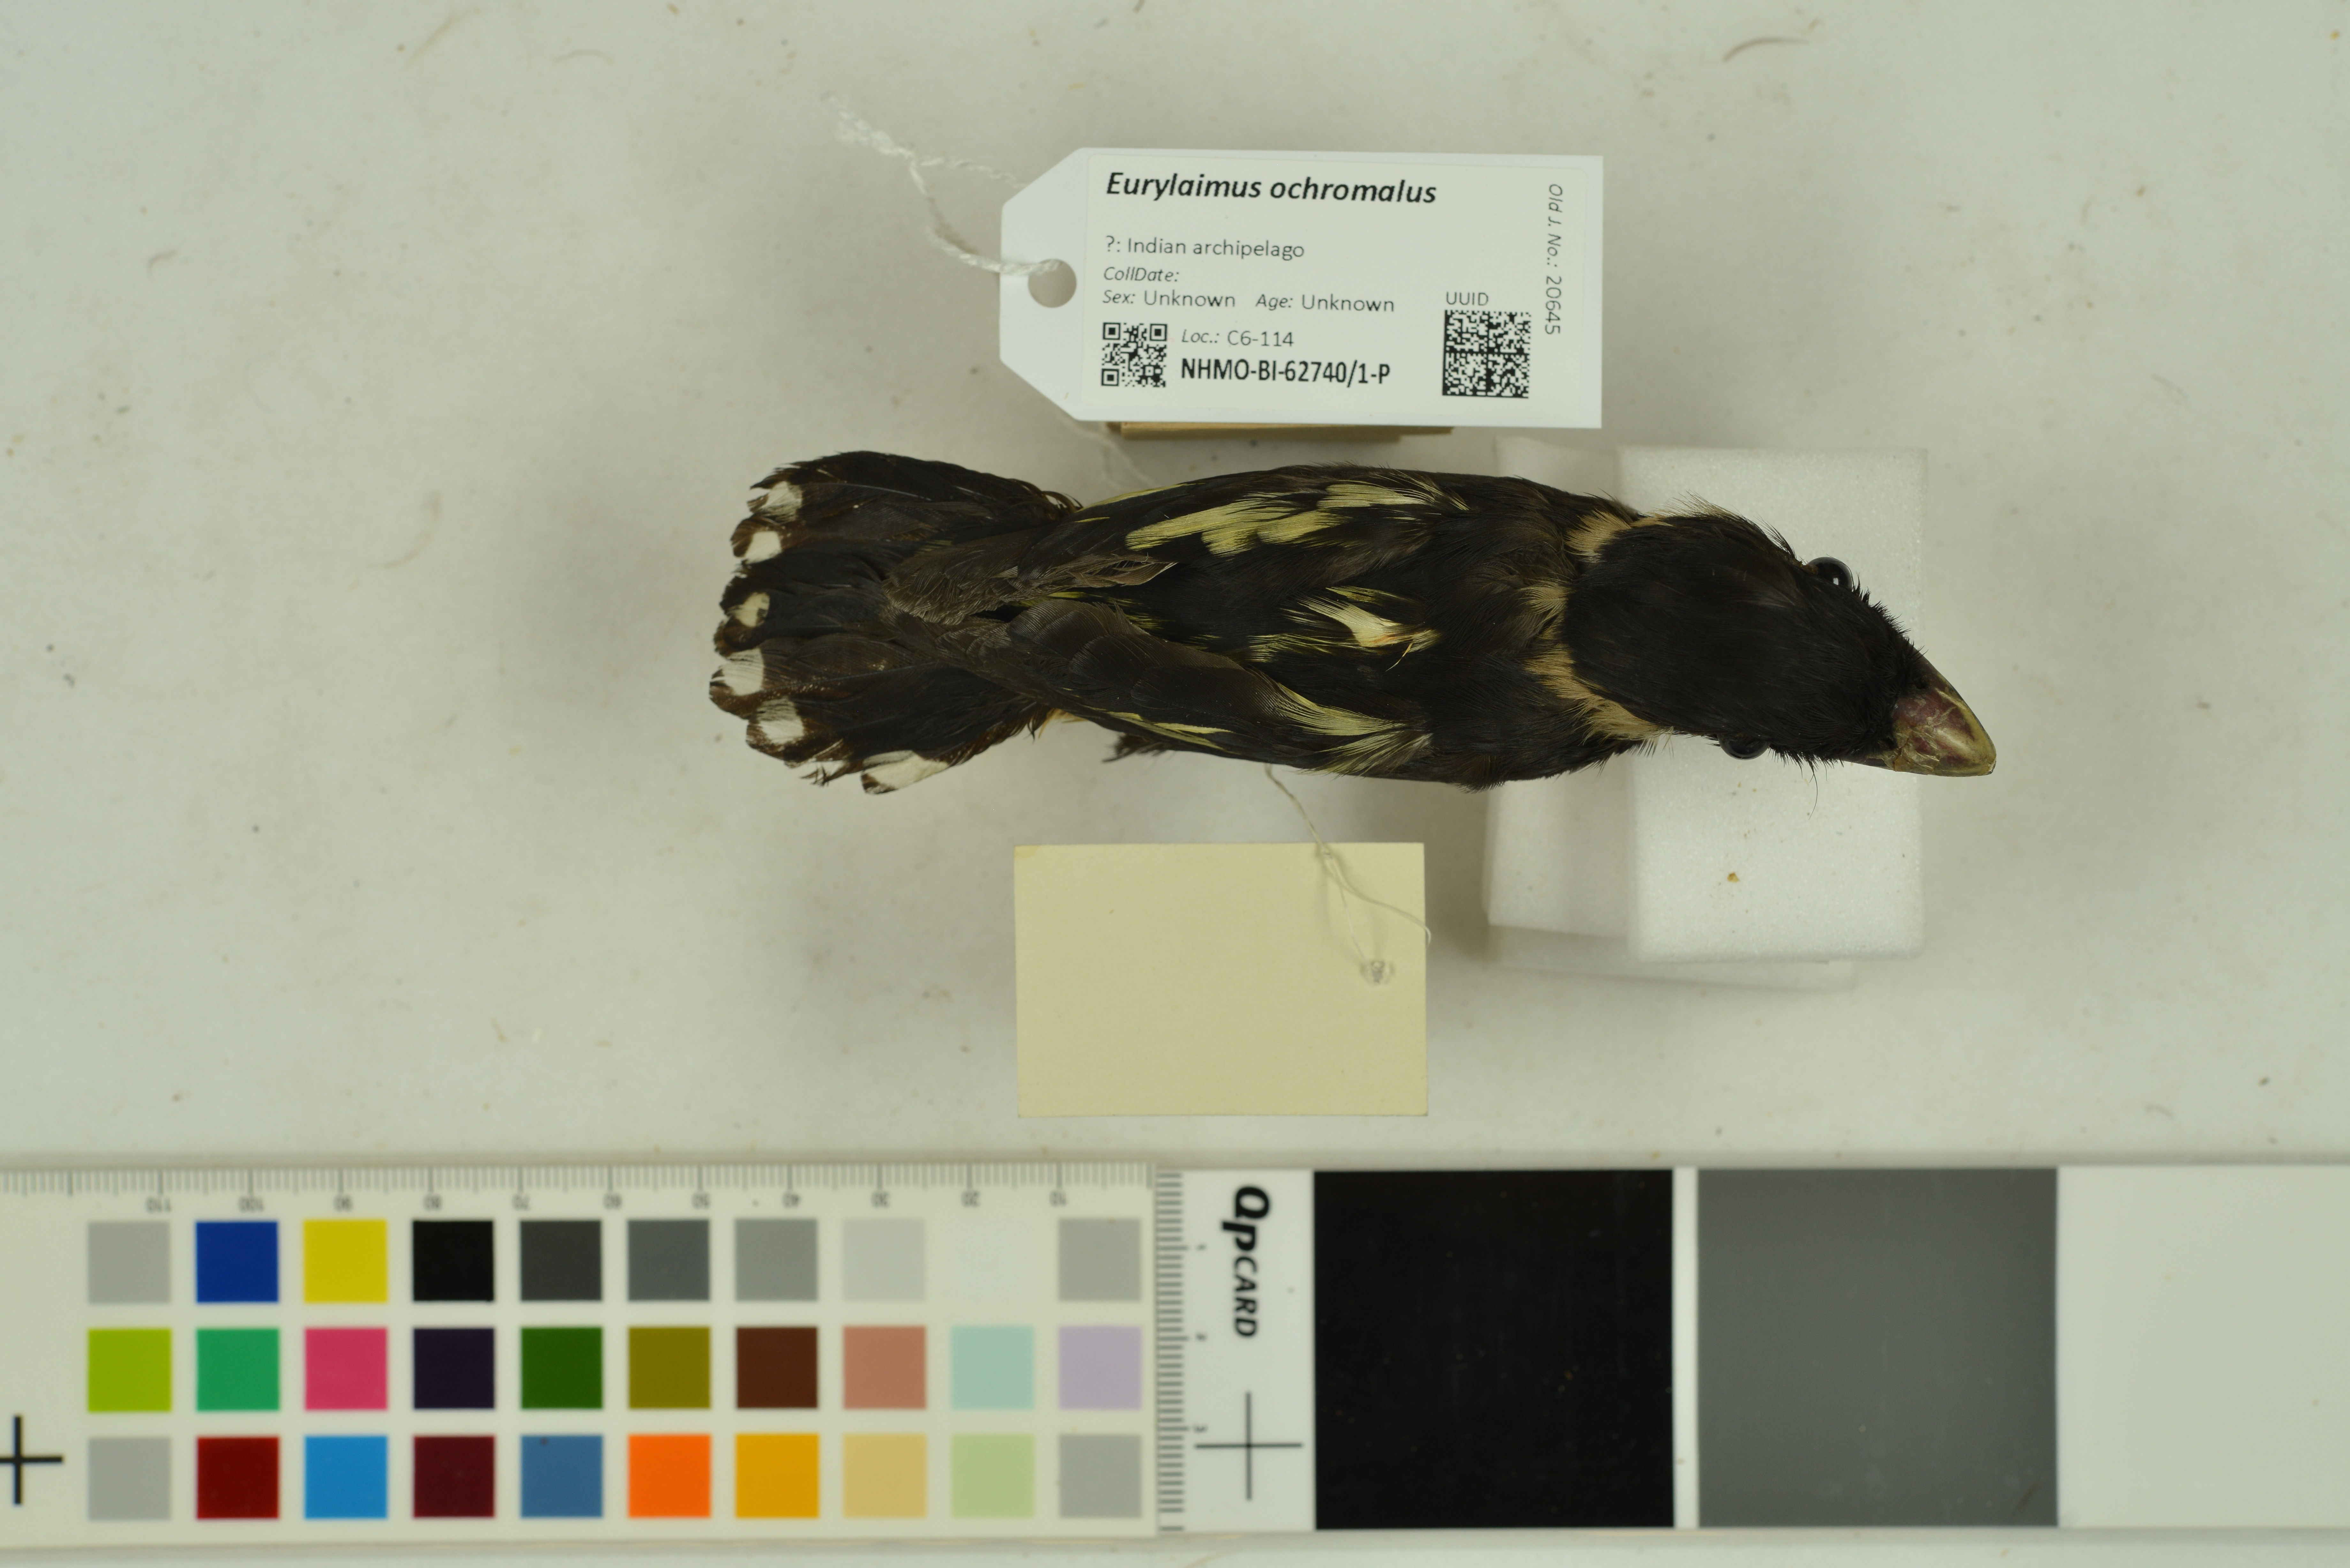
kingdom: Animalia
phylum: Chordata
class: Aves
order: Passeriformes
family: Eurylaimidae
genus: Eurylaimus
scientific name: Eurylaimus ochromalus
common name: Black-and-yellow broadbill
